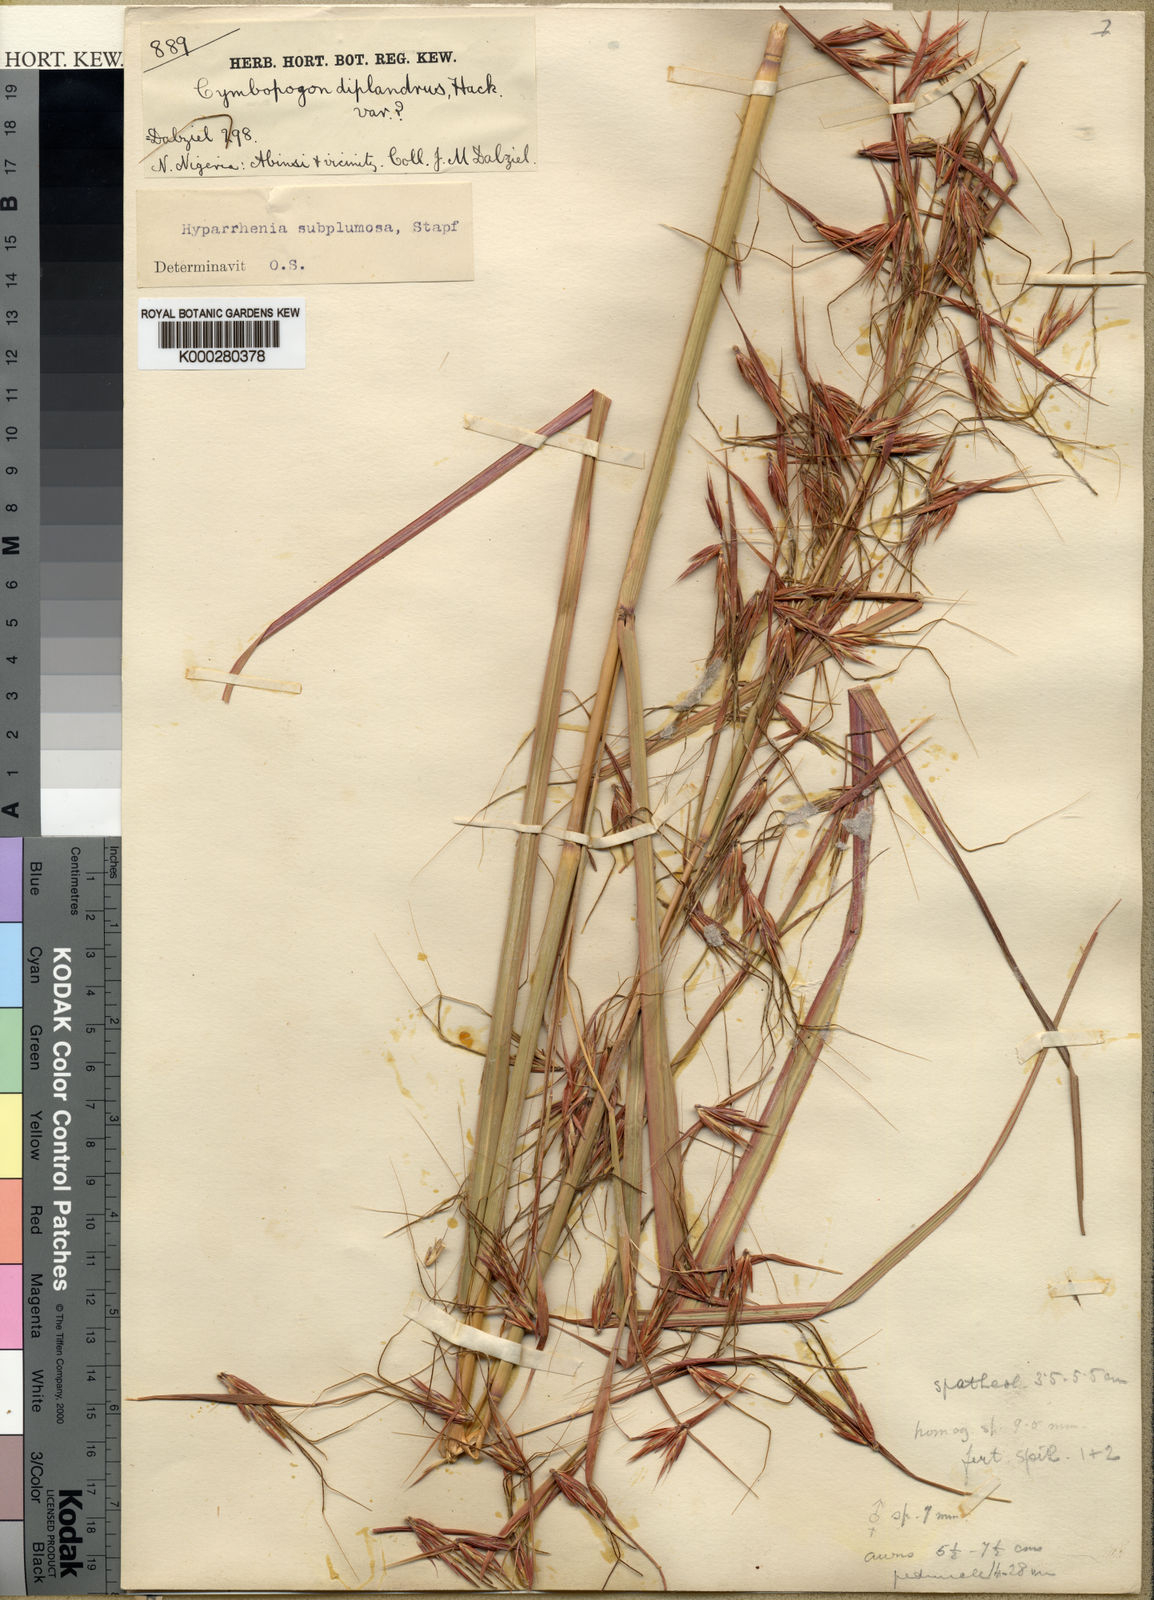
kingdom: Plantae
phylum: Tracheophyta
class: Liliopsida
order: Poales
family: Poaceae
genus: Hyparrhenia
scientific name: Hyparrhenia subplumosa
